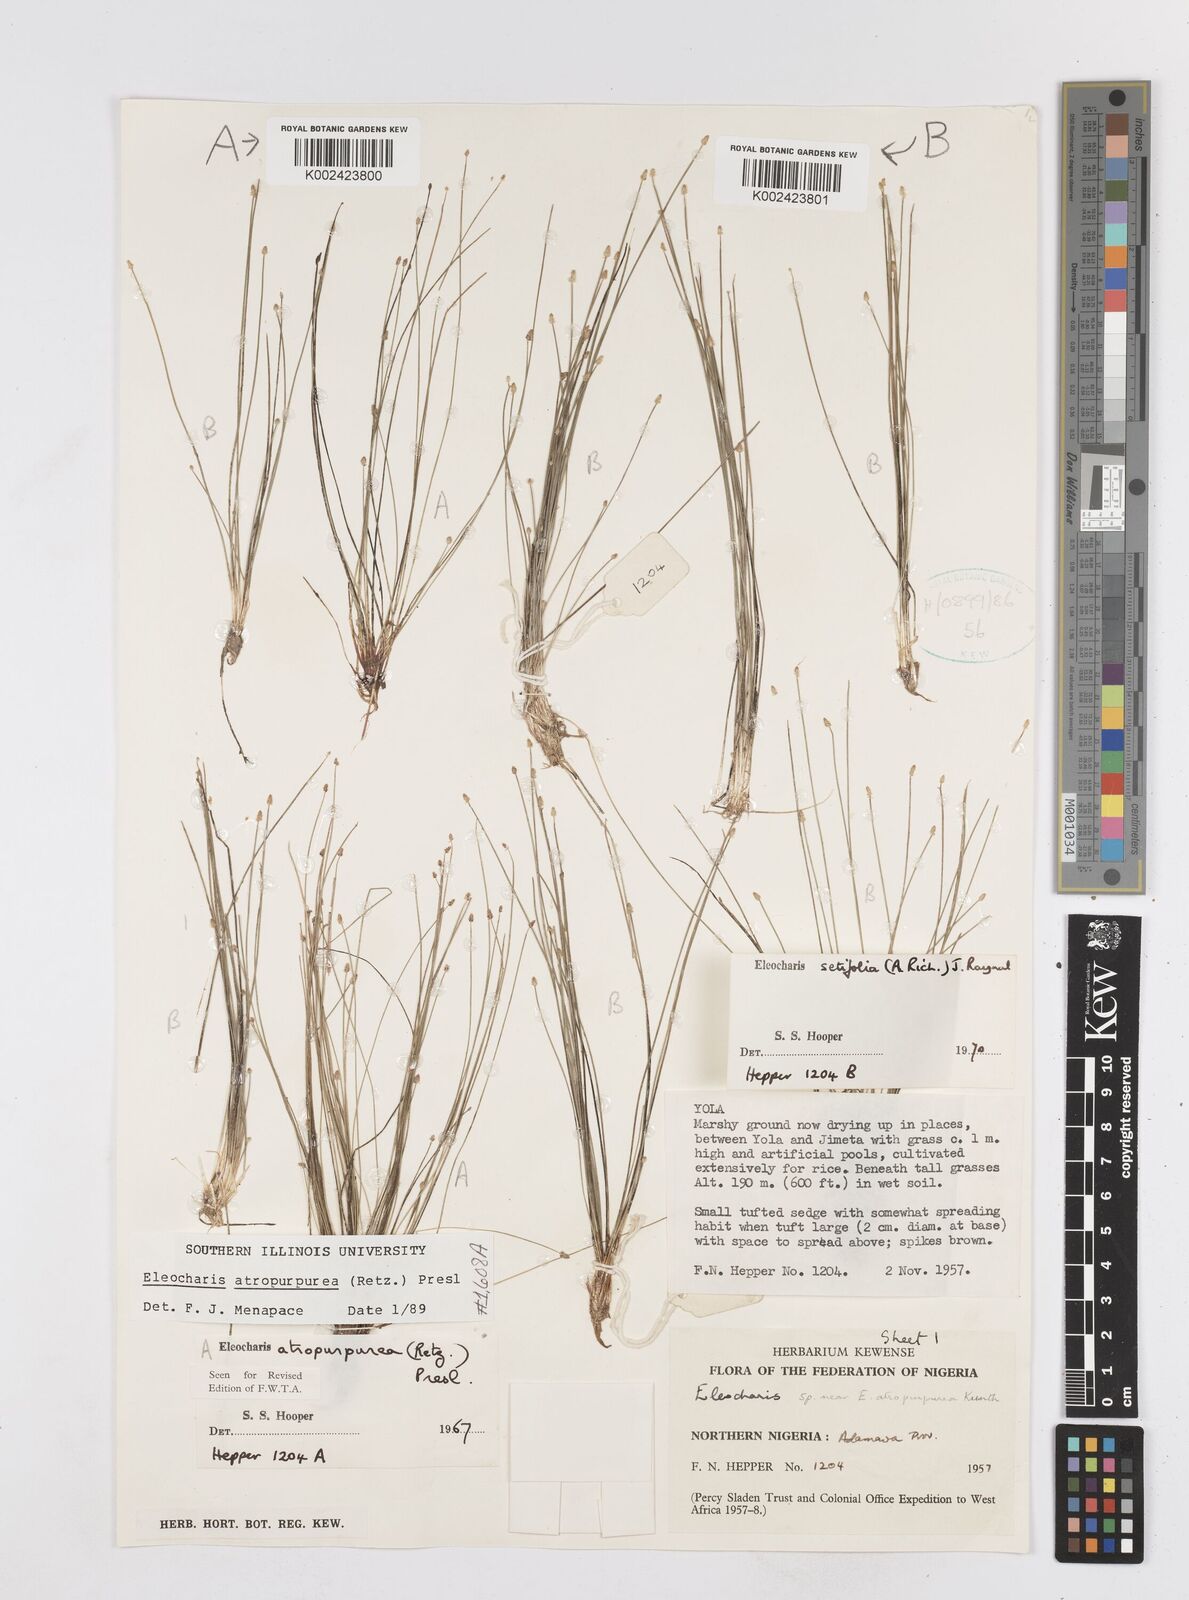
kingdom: Plantae
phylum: Tracheophyta
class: Liliopsida
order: Poales
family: Cyperaceae
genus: Eleocharis
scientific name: Eleocharis atropurpurea
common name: Purple spikerush
